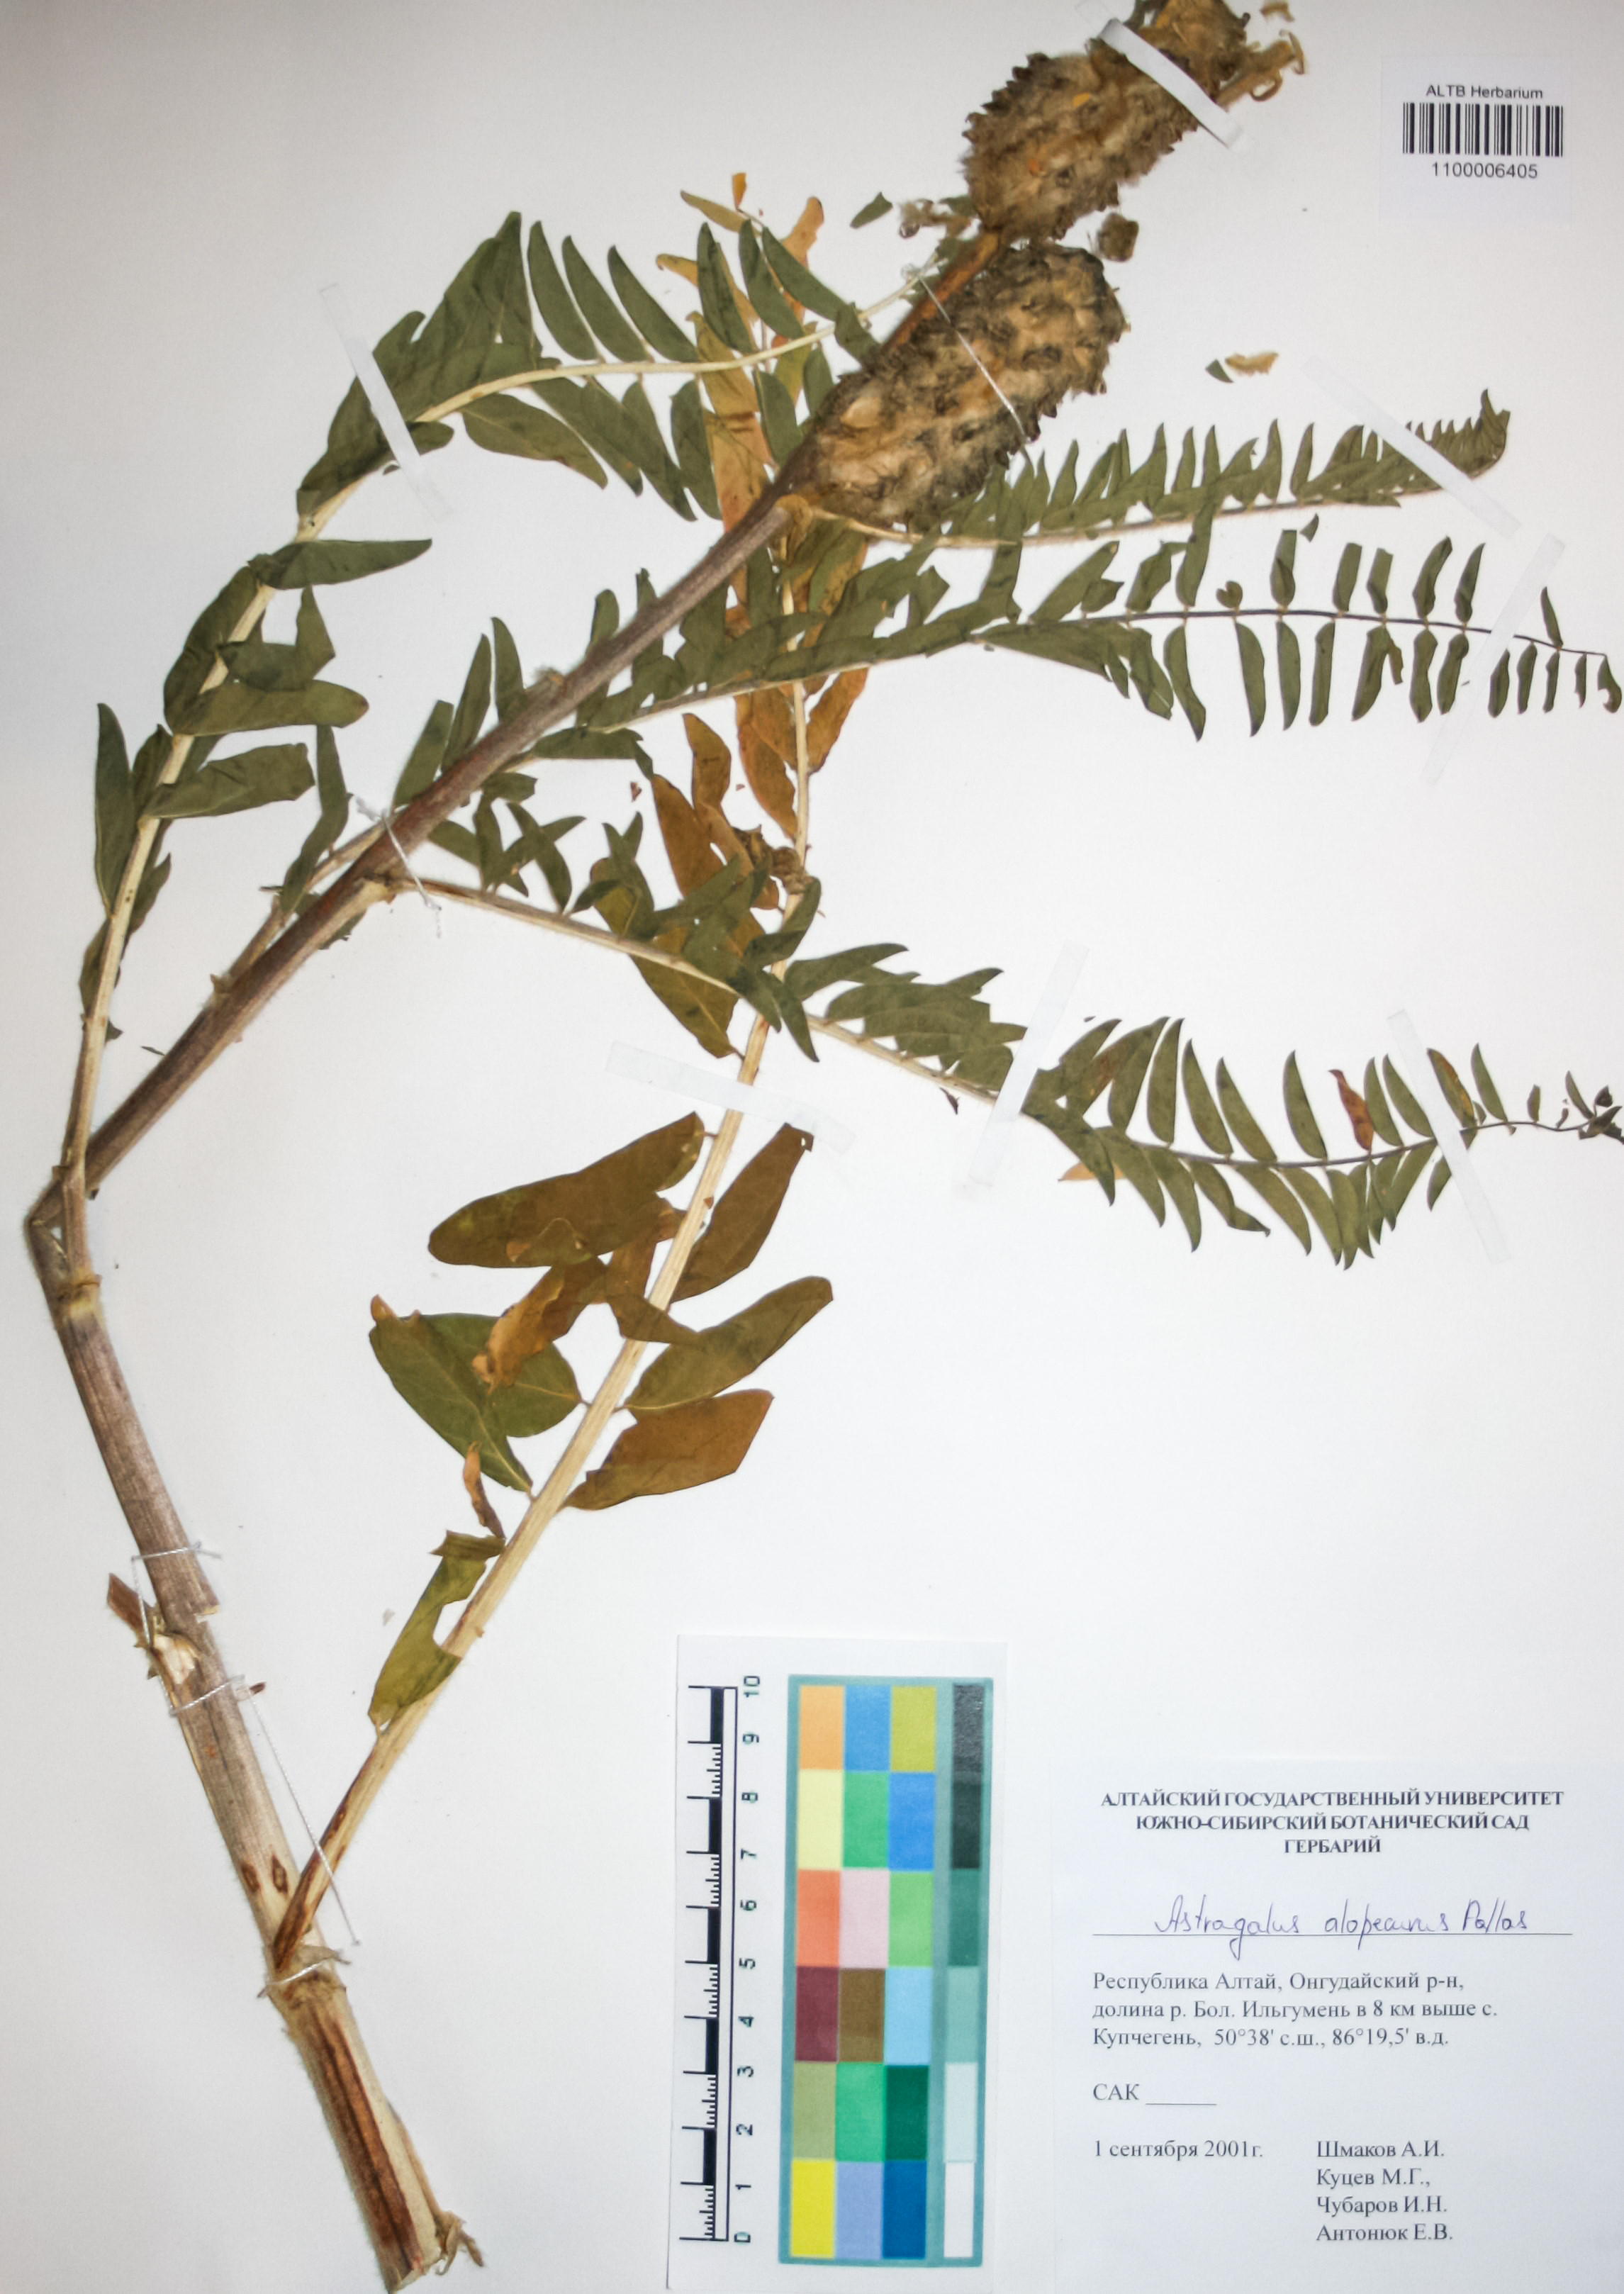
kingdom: Plantae
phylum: Tracheophyta
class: Magnoliopsida
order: Fabales
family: Fabaceae
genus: Astragalus
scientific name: Astragalus alopecurus
